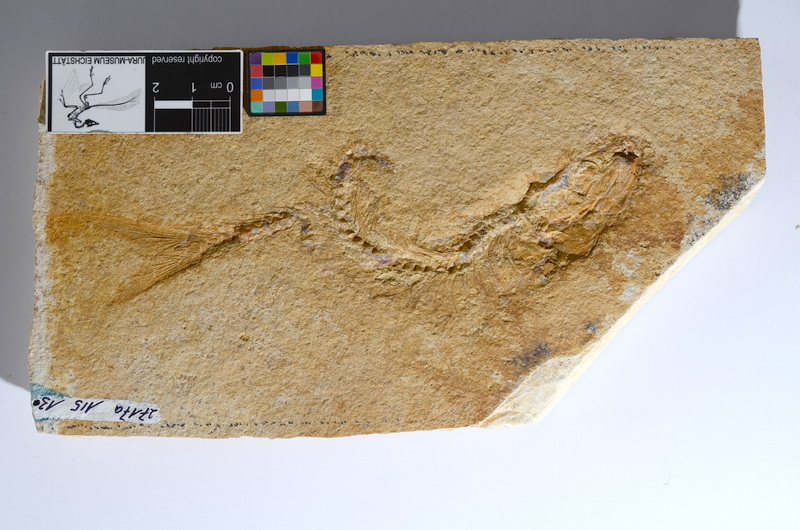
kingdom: Animalia
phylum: Chordata
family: Ascalaboidae
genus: Tharsis
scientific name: Tharsis dubius
